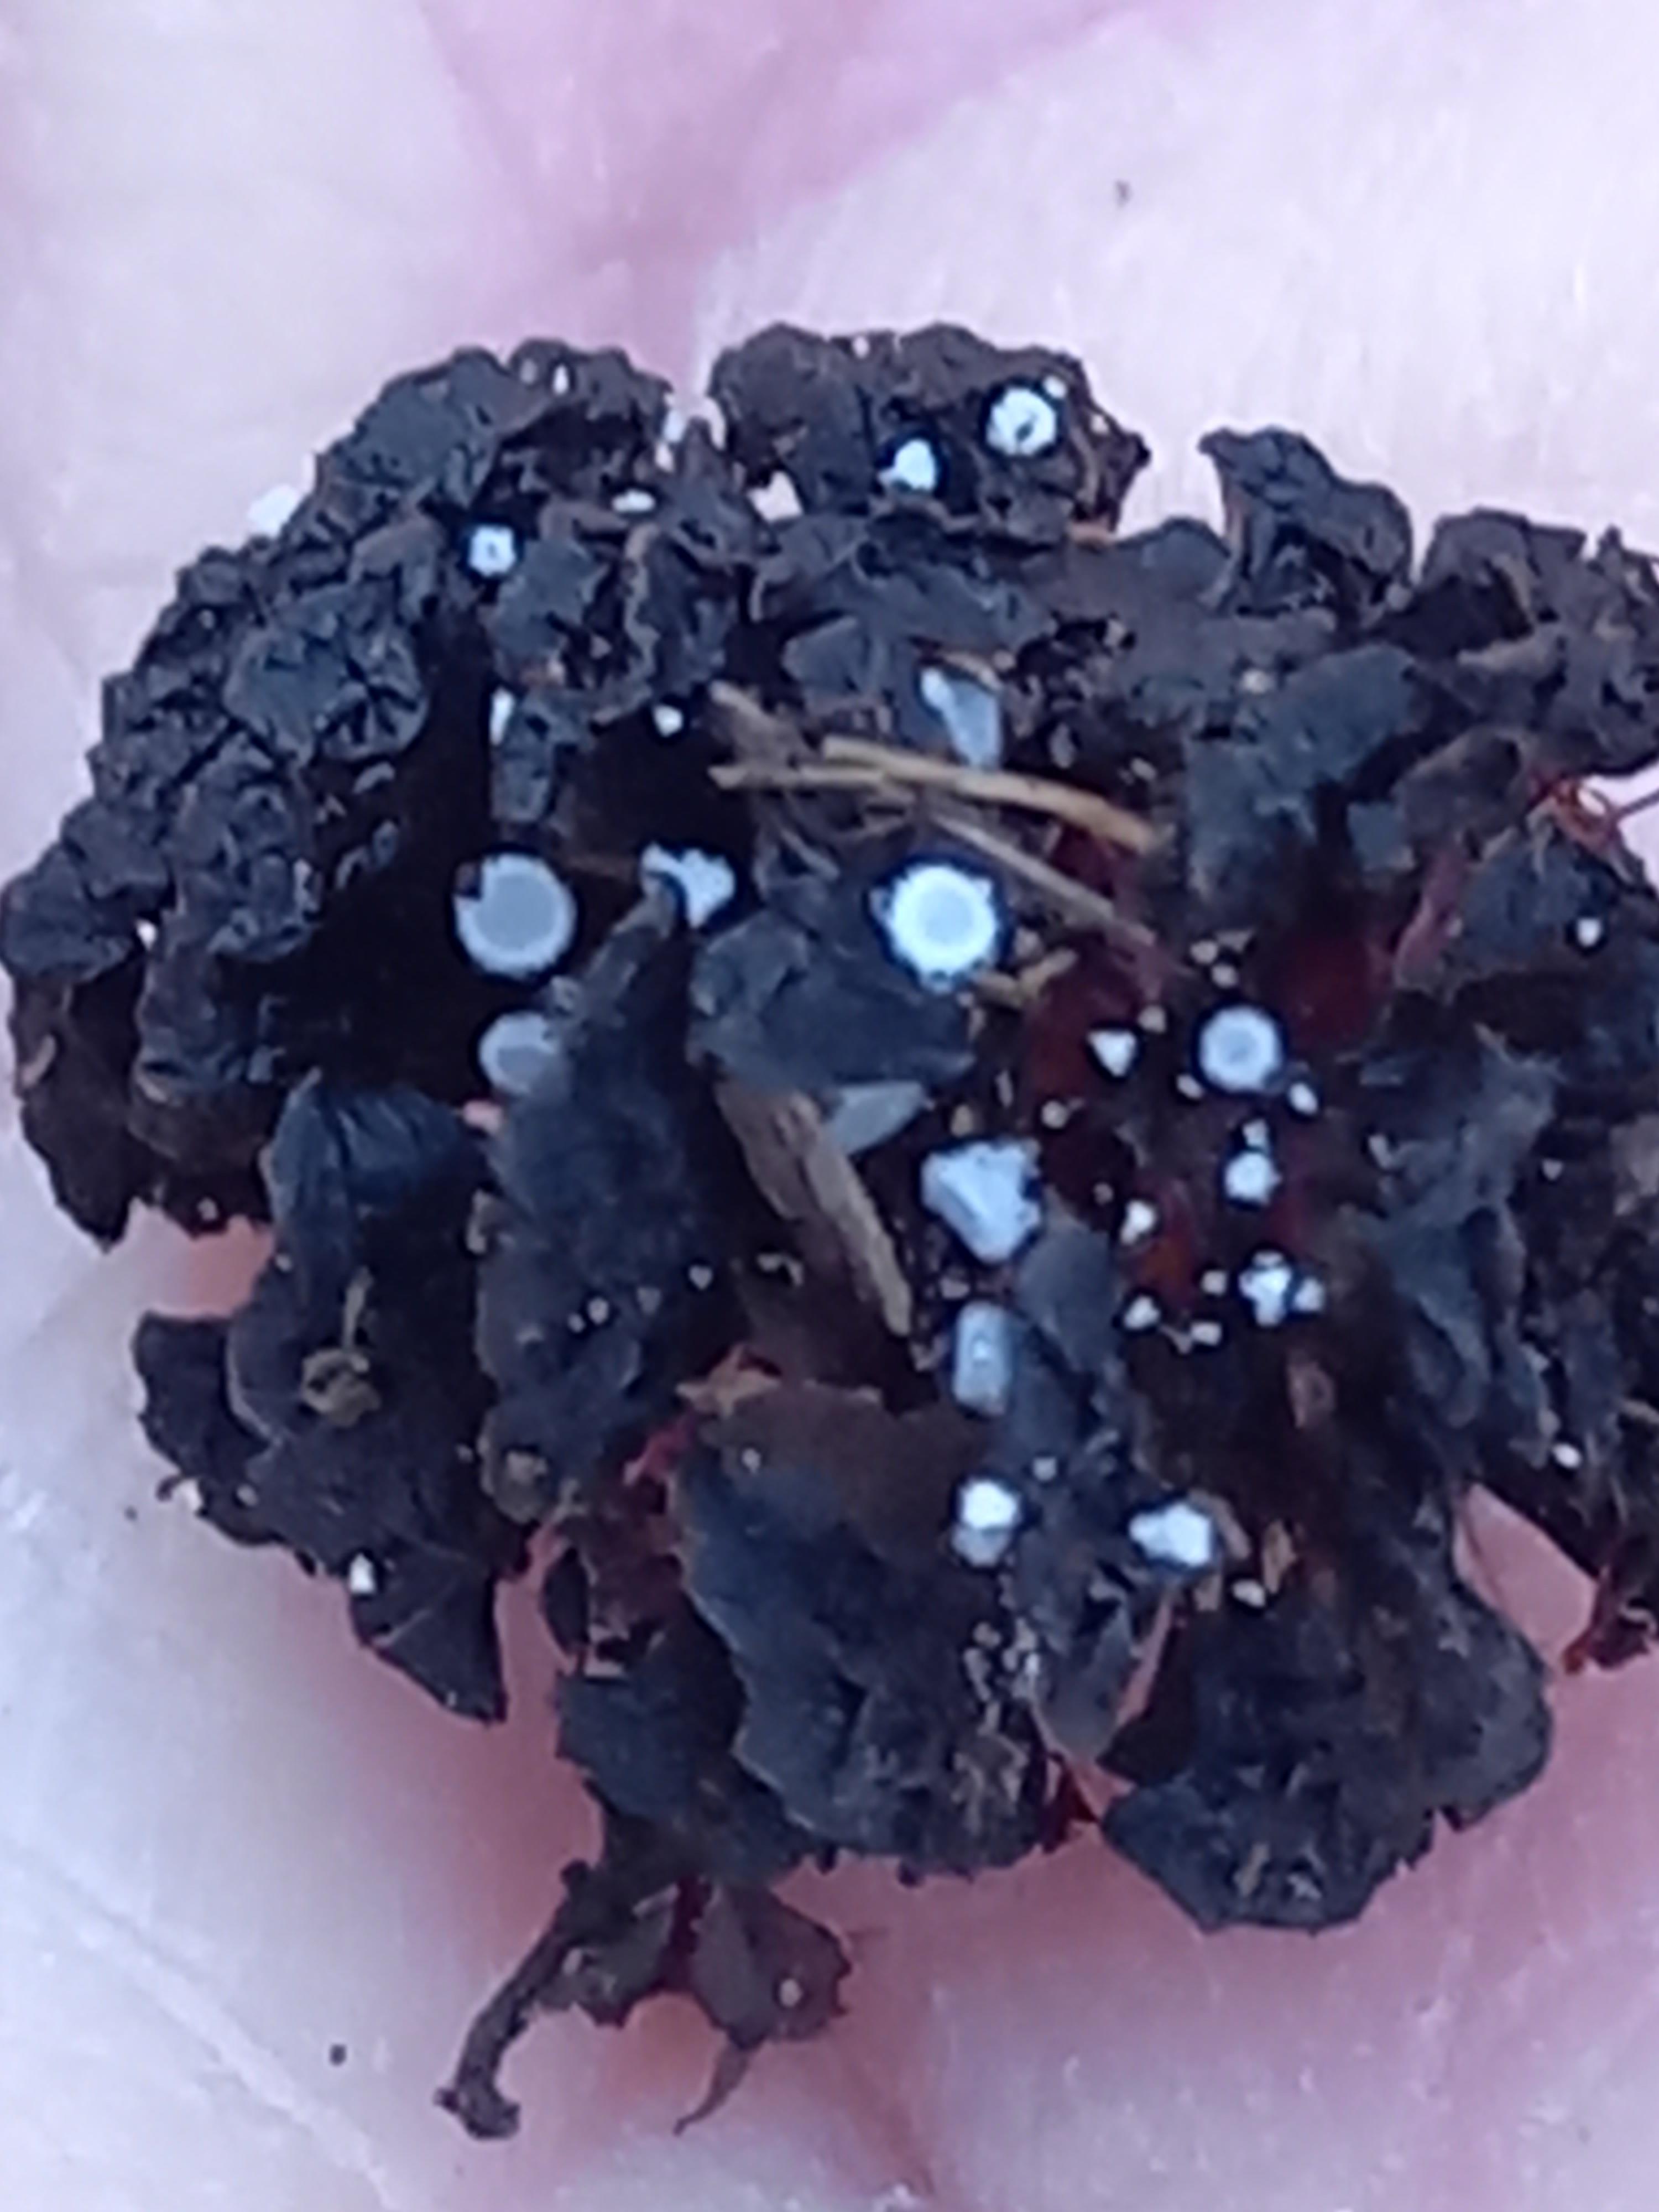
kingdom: Fungi
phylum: Ascomycota
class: Leotiomycetes
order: Helotiales
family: Lachnaceae
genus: Lachnum
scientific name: Lachnum virgineum
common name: jomfru-frynseskive
